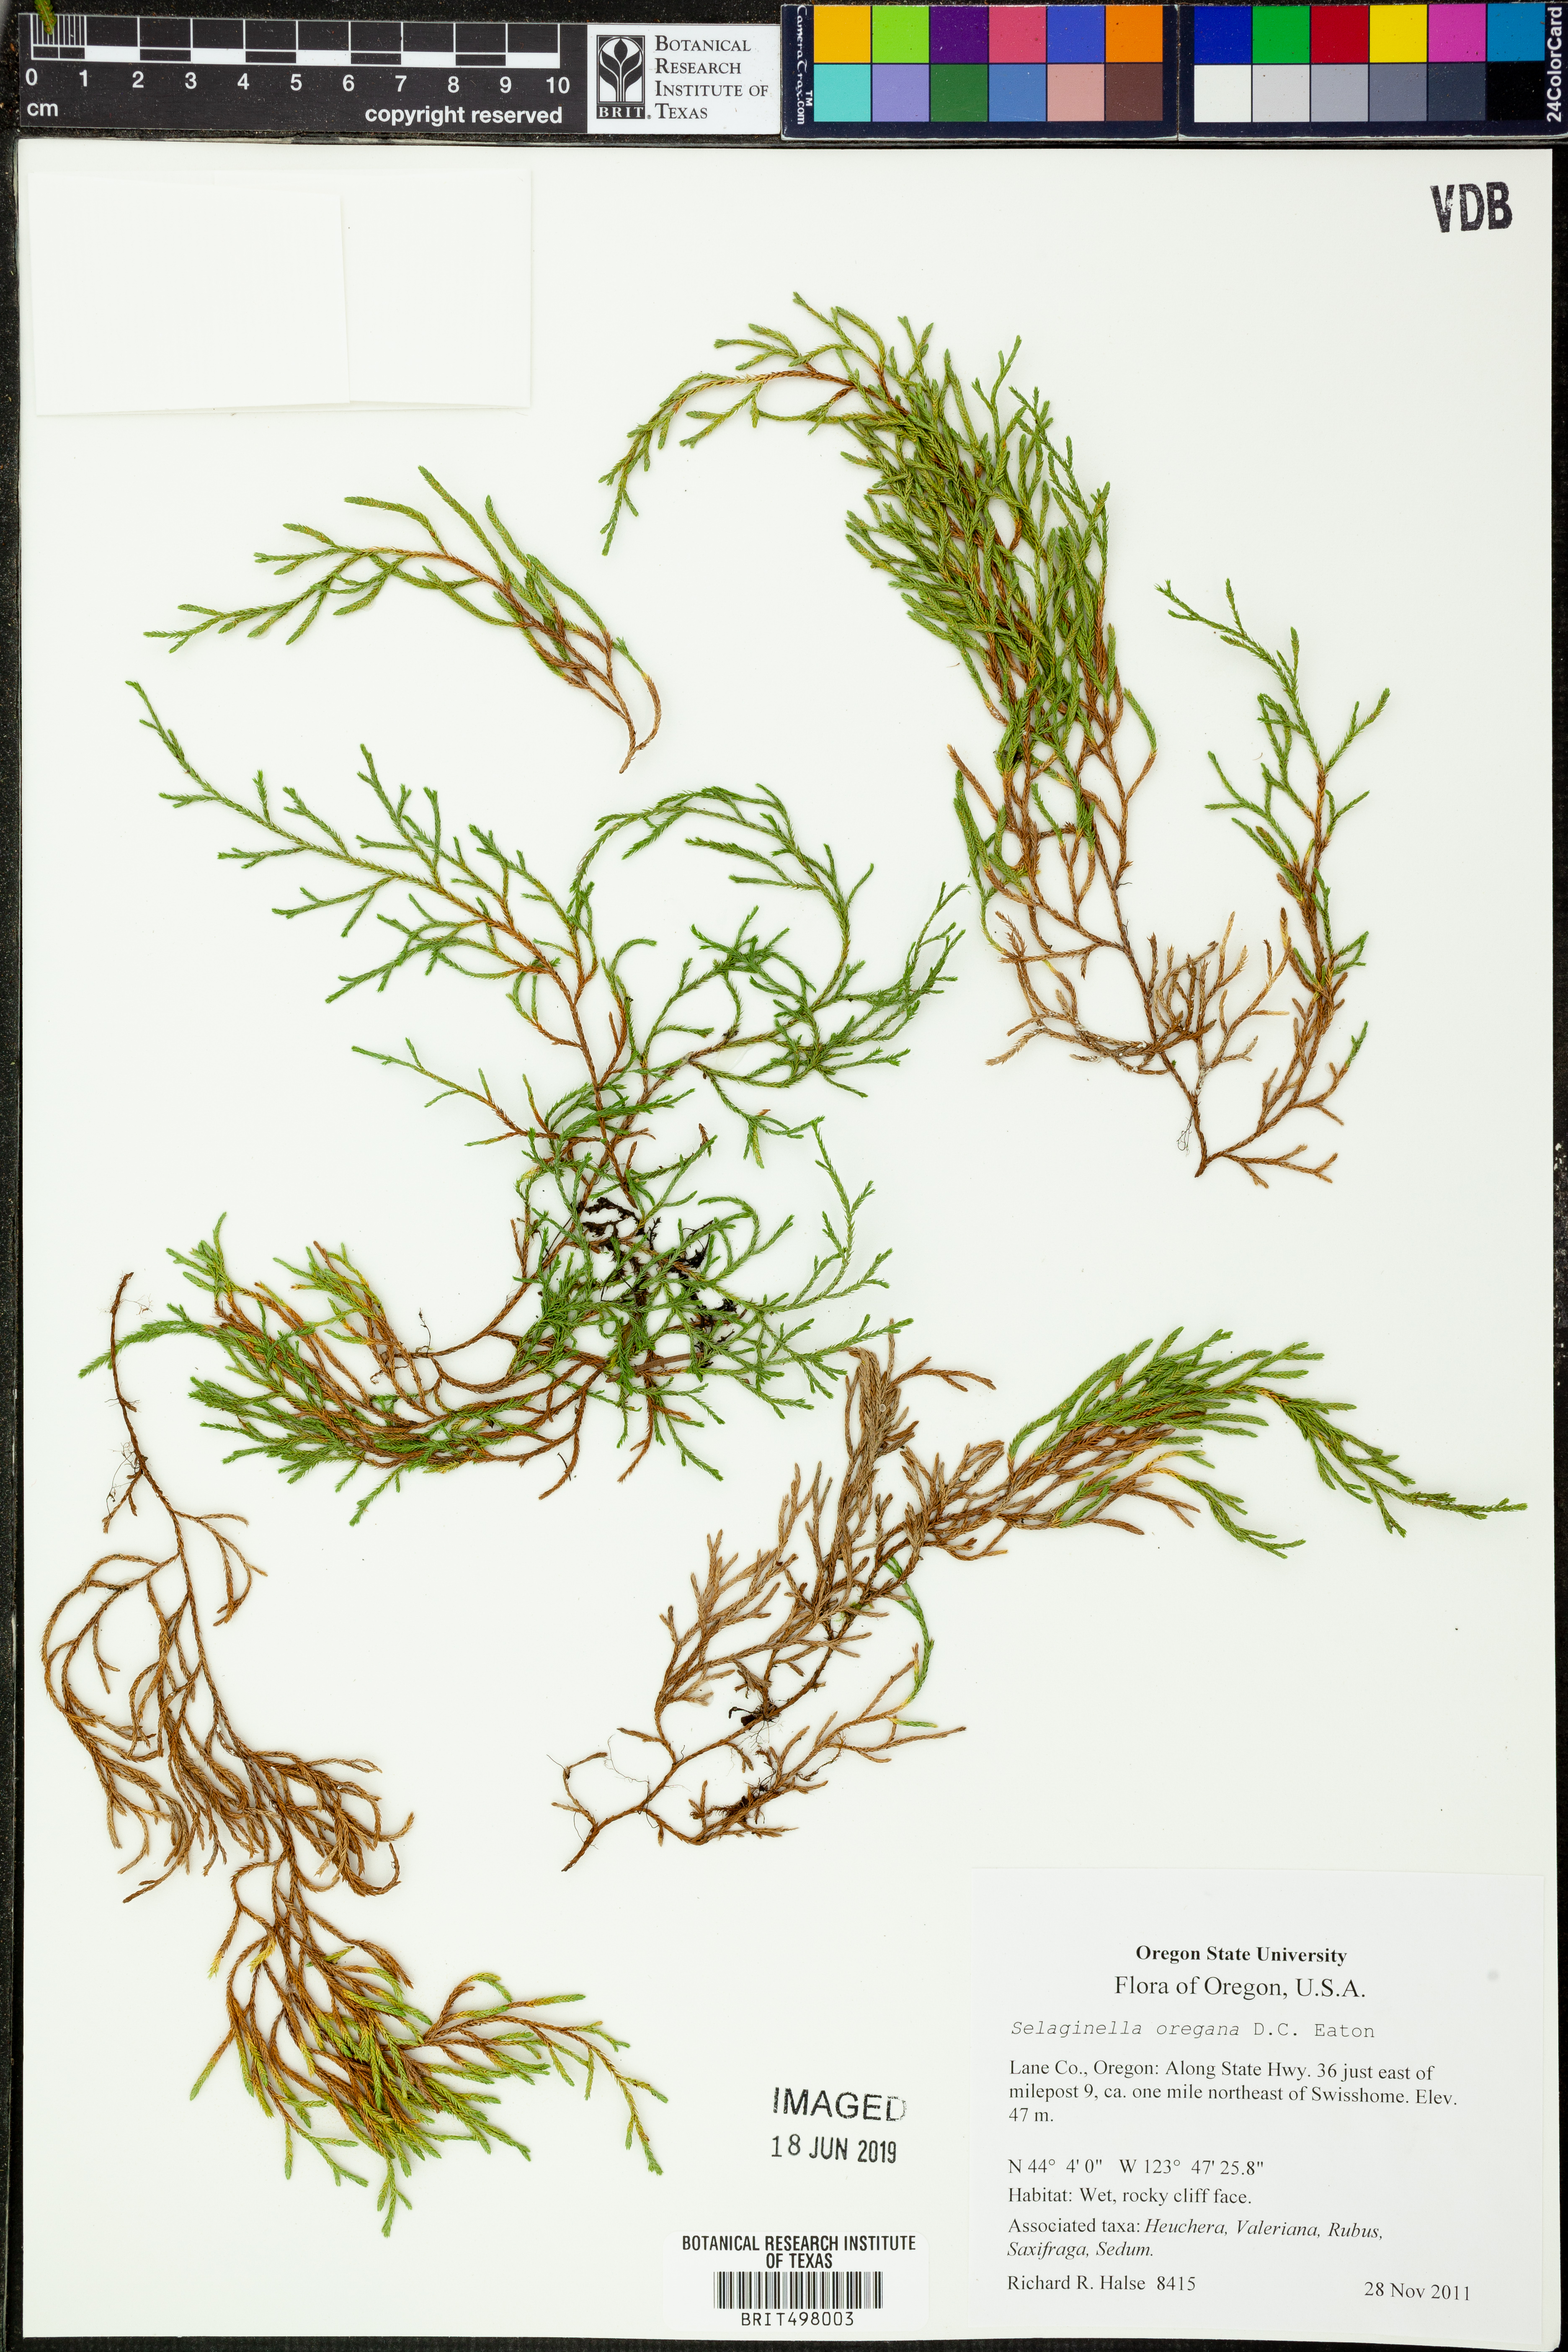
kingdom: Plantae
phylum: Tracheophyta
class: Lycopodiopsida
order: Selaginellales
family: Selaginellaceae
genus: Selaginella
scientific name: Selaginella oregana
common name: Oregon selaginella
